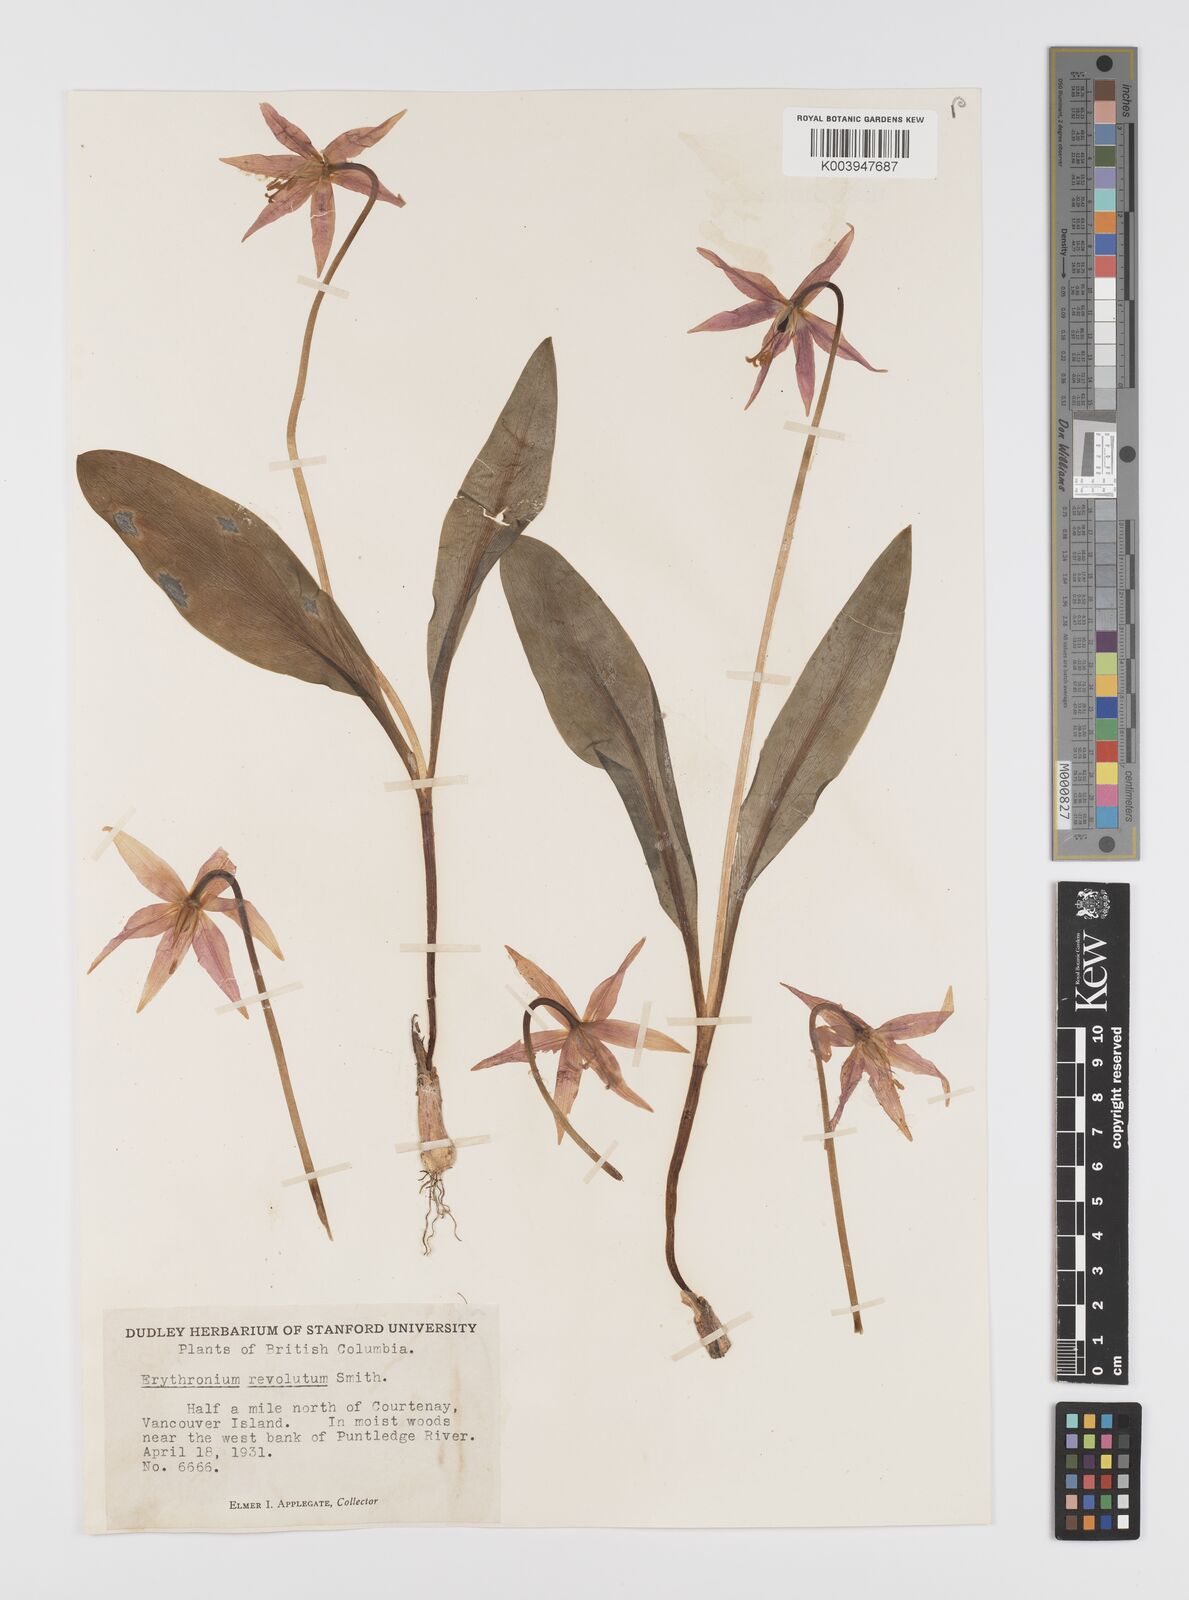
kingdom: Plantae
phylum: Tracheophyta
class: Liliopsida
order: Liliales
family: Liliaceae
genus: Erythronium
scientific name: Erythronium purpurascens
